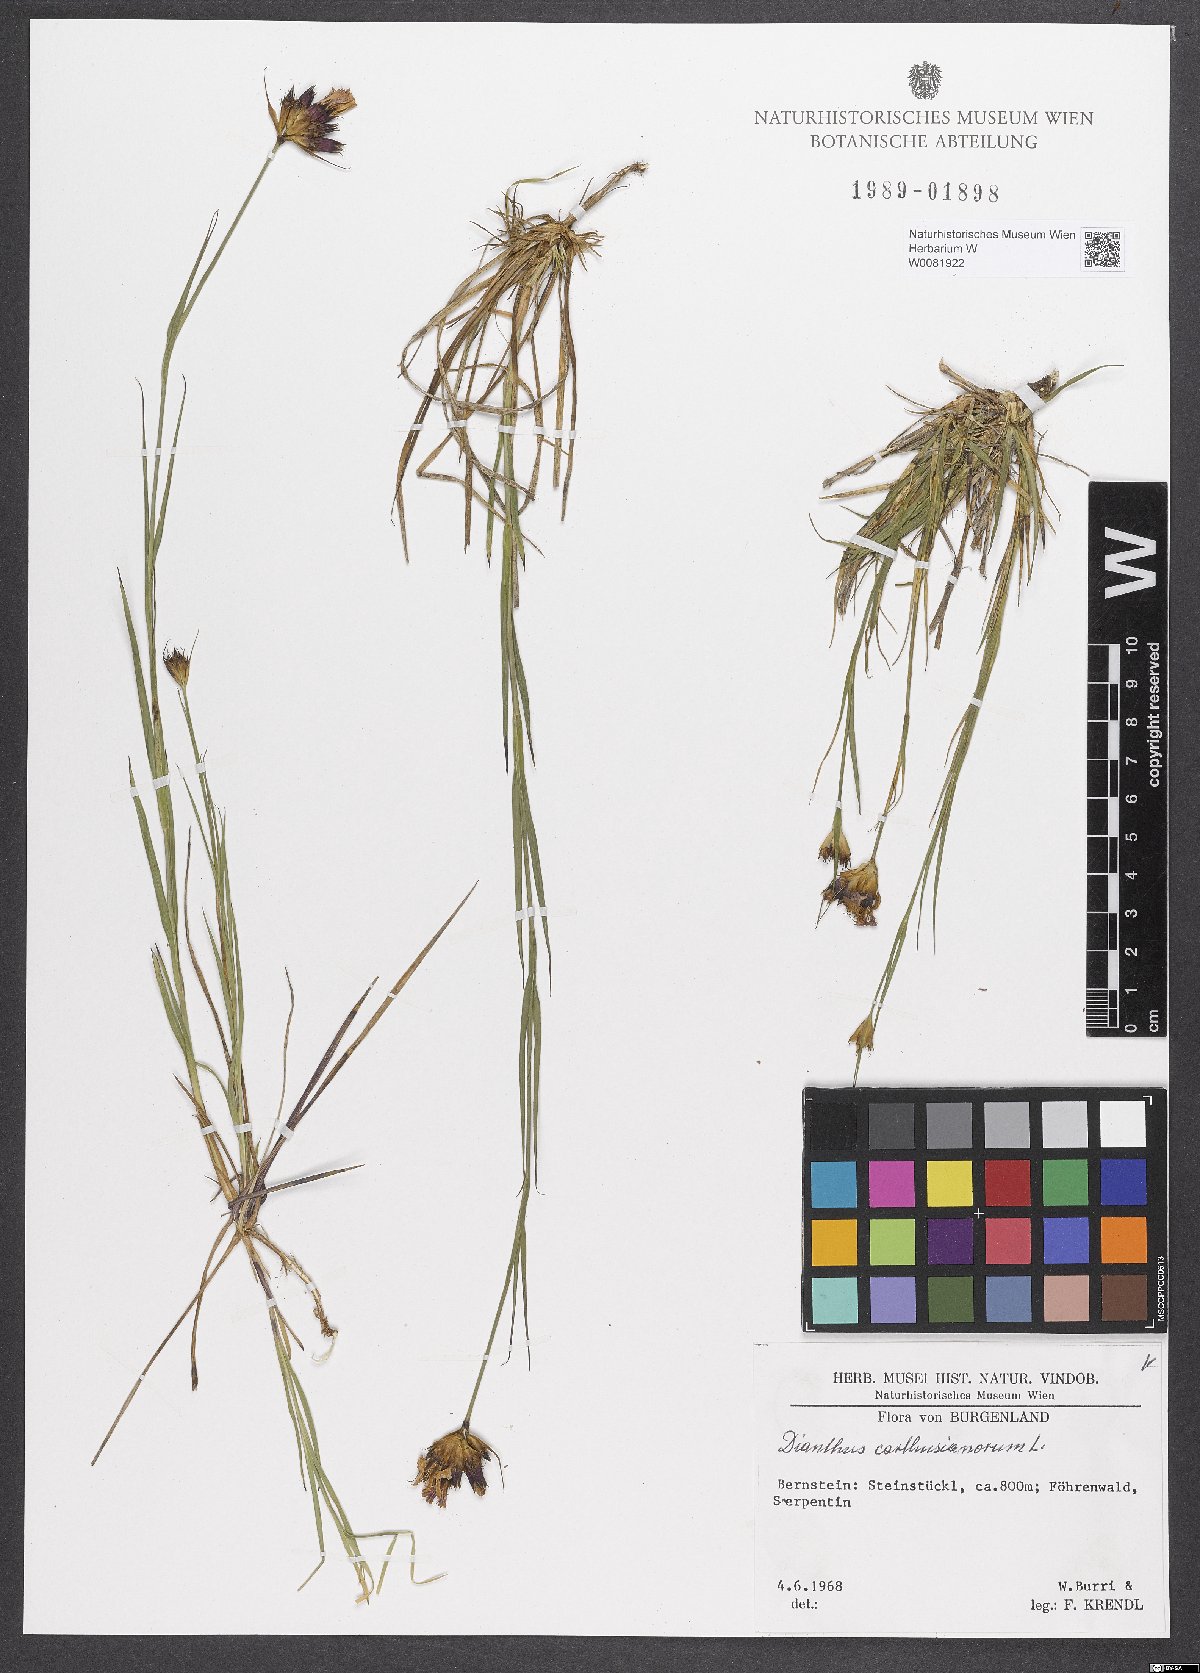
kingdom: Plantae
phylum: Tracheophyta
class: Magnoliopsida
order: Caryophyllales
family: Caryophyllaceae
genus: Dianthus
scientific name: Dianthus carthusianorum
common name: Carthusian pink
